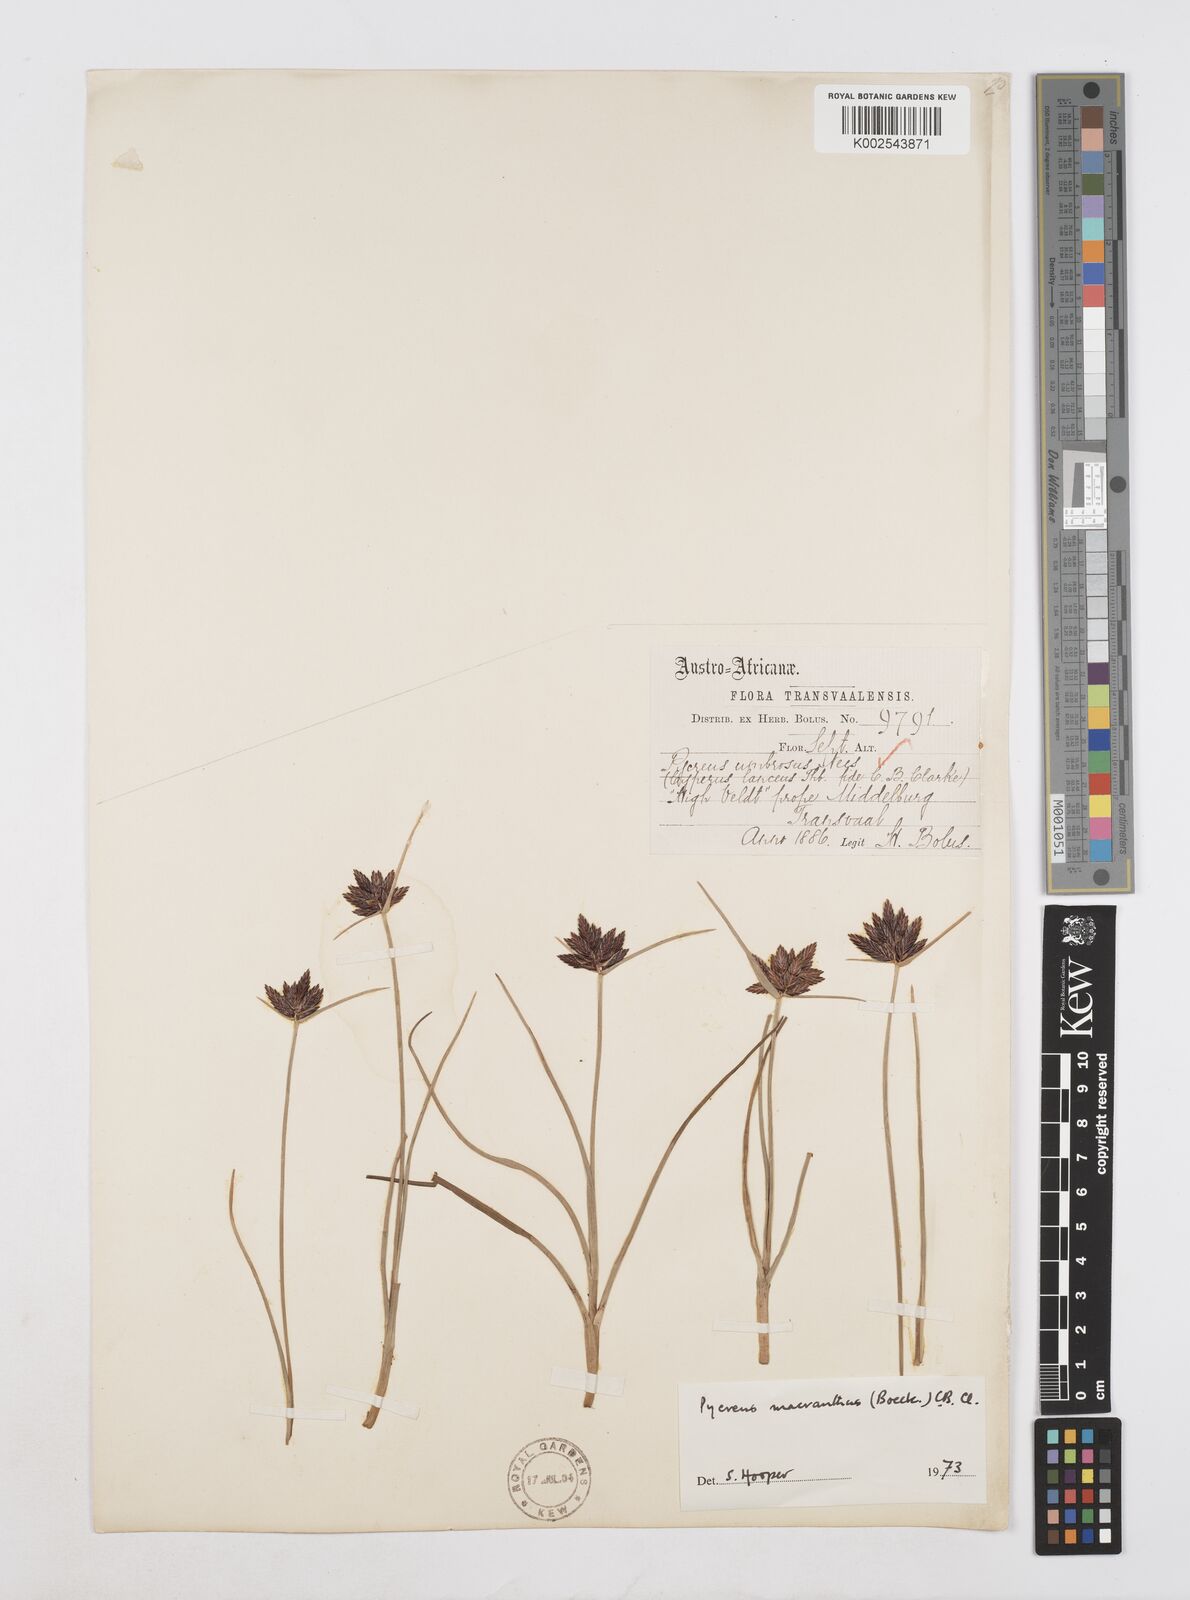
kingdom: Plantae
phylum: Tracheophyta
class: Liliopsida
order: Poales
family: Cyperaceae
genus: Cyperus
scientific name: Cyperus nigricans
